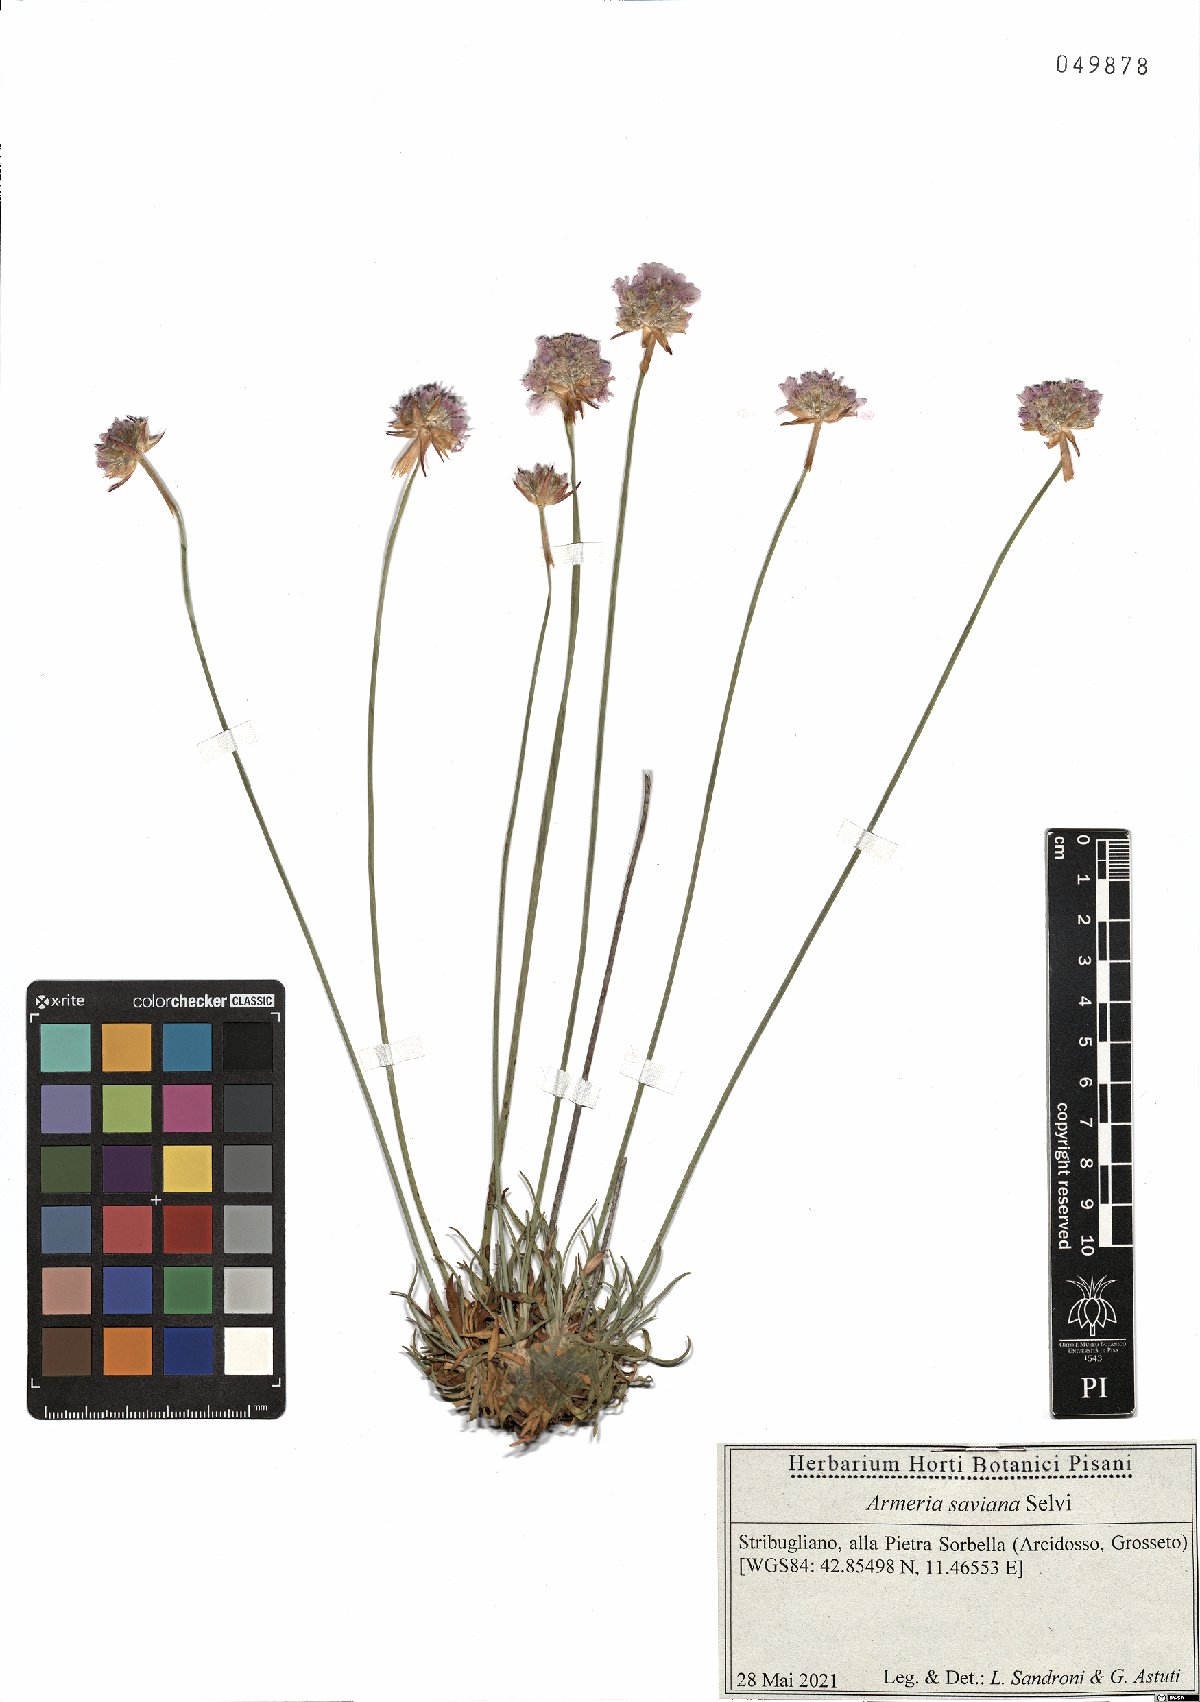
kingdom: Plantae
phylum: Tracheophyta
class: Magnoliopsida
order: Caryophyllales
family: Plumbaginaceae
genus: Armeria
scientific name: Armeria saviana
